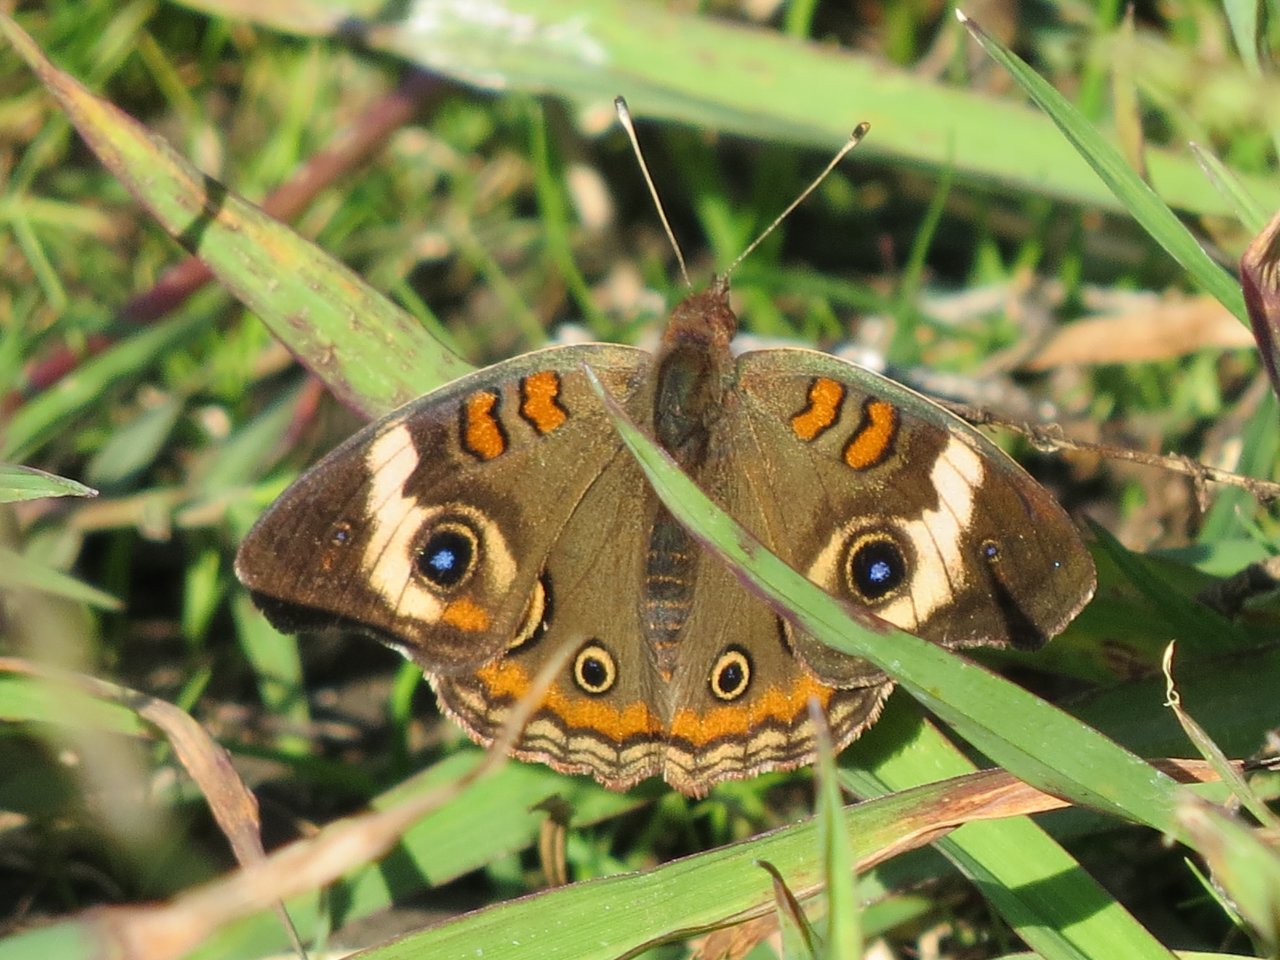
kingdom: Animalia
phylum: Arthropoda
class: Insecta
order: Lepidoptera
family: Nymphalidae
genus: Junonia
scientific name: Junonia coenia
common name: Common Buckeye
